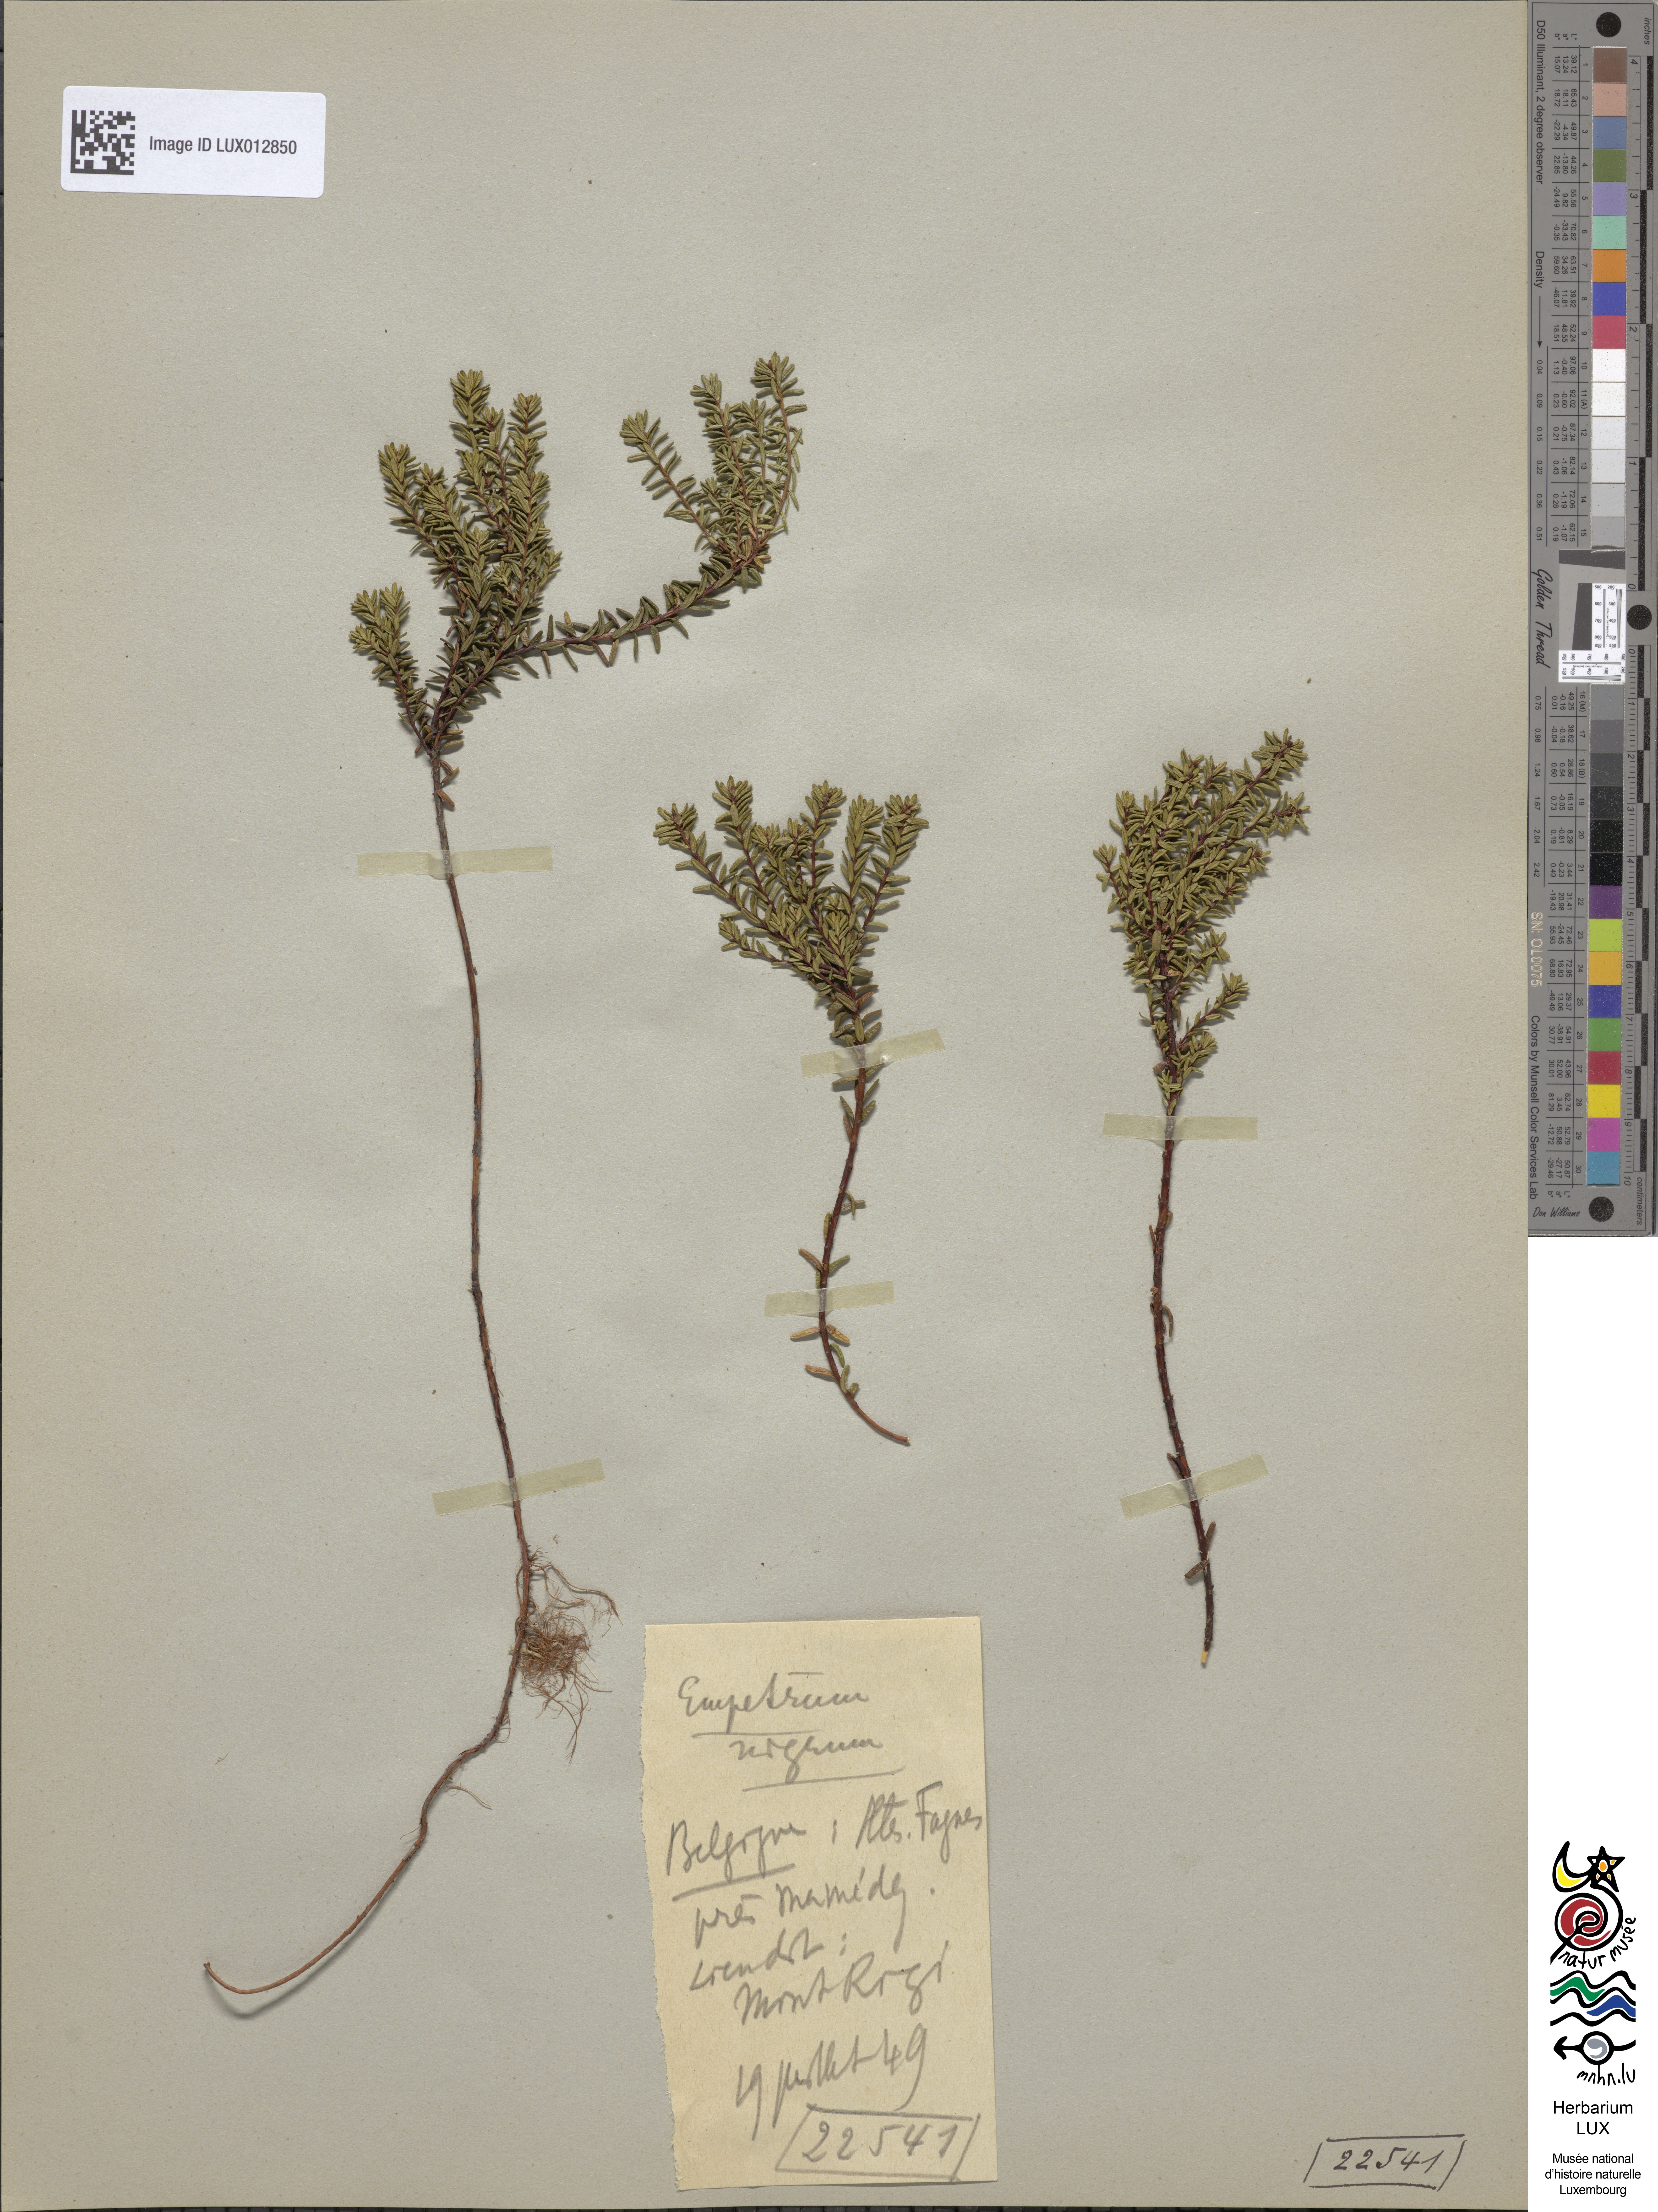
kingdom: Plantae
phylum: Tracheophyta
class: Magnoliopsida
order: Ericales
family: Ericaceae
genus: Empetrum
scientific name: Empetrum nigrum
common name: Black crowberry
